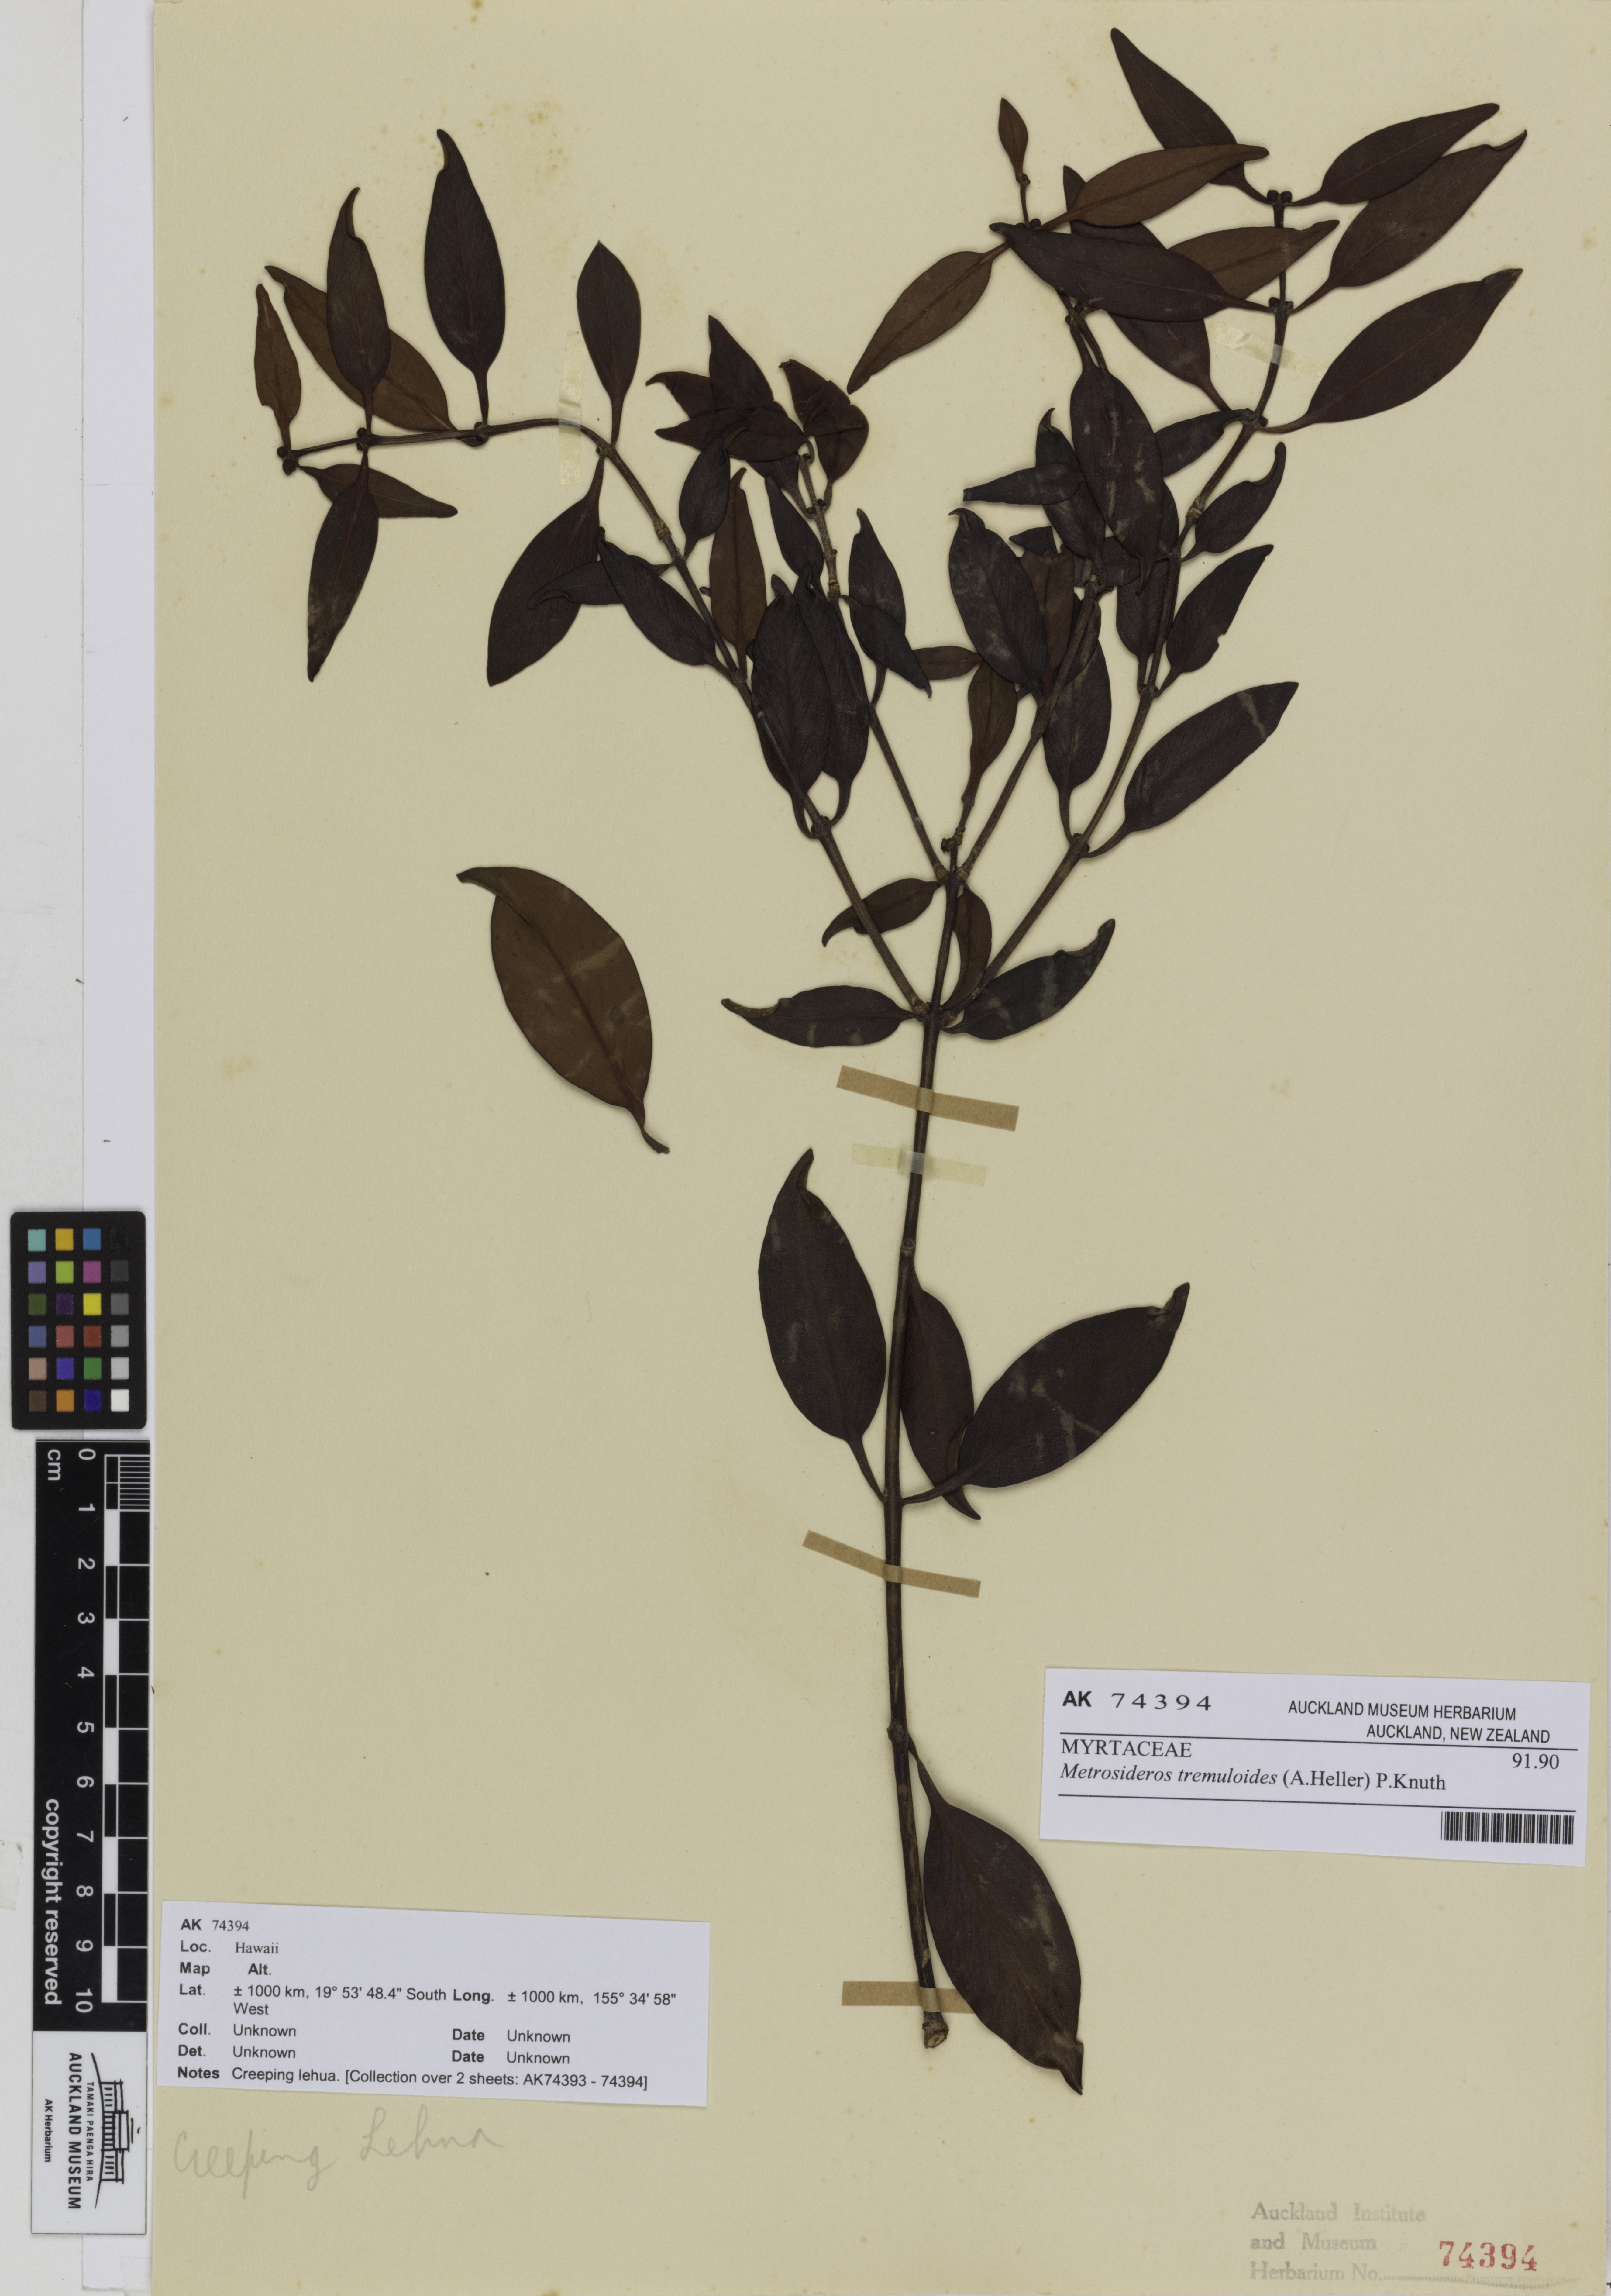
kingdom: Plantae
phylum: Tracheophyta
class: Magnoliopsida
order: Myrtales
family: Myrtaceae
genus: Metrosideros
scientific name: Metrosideros tremuloides
